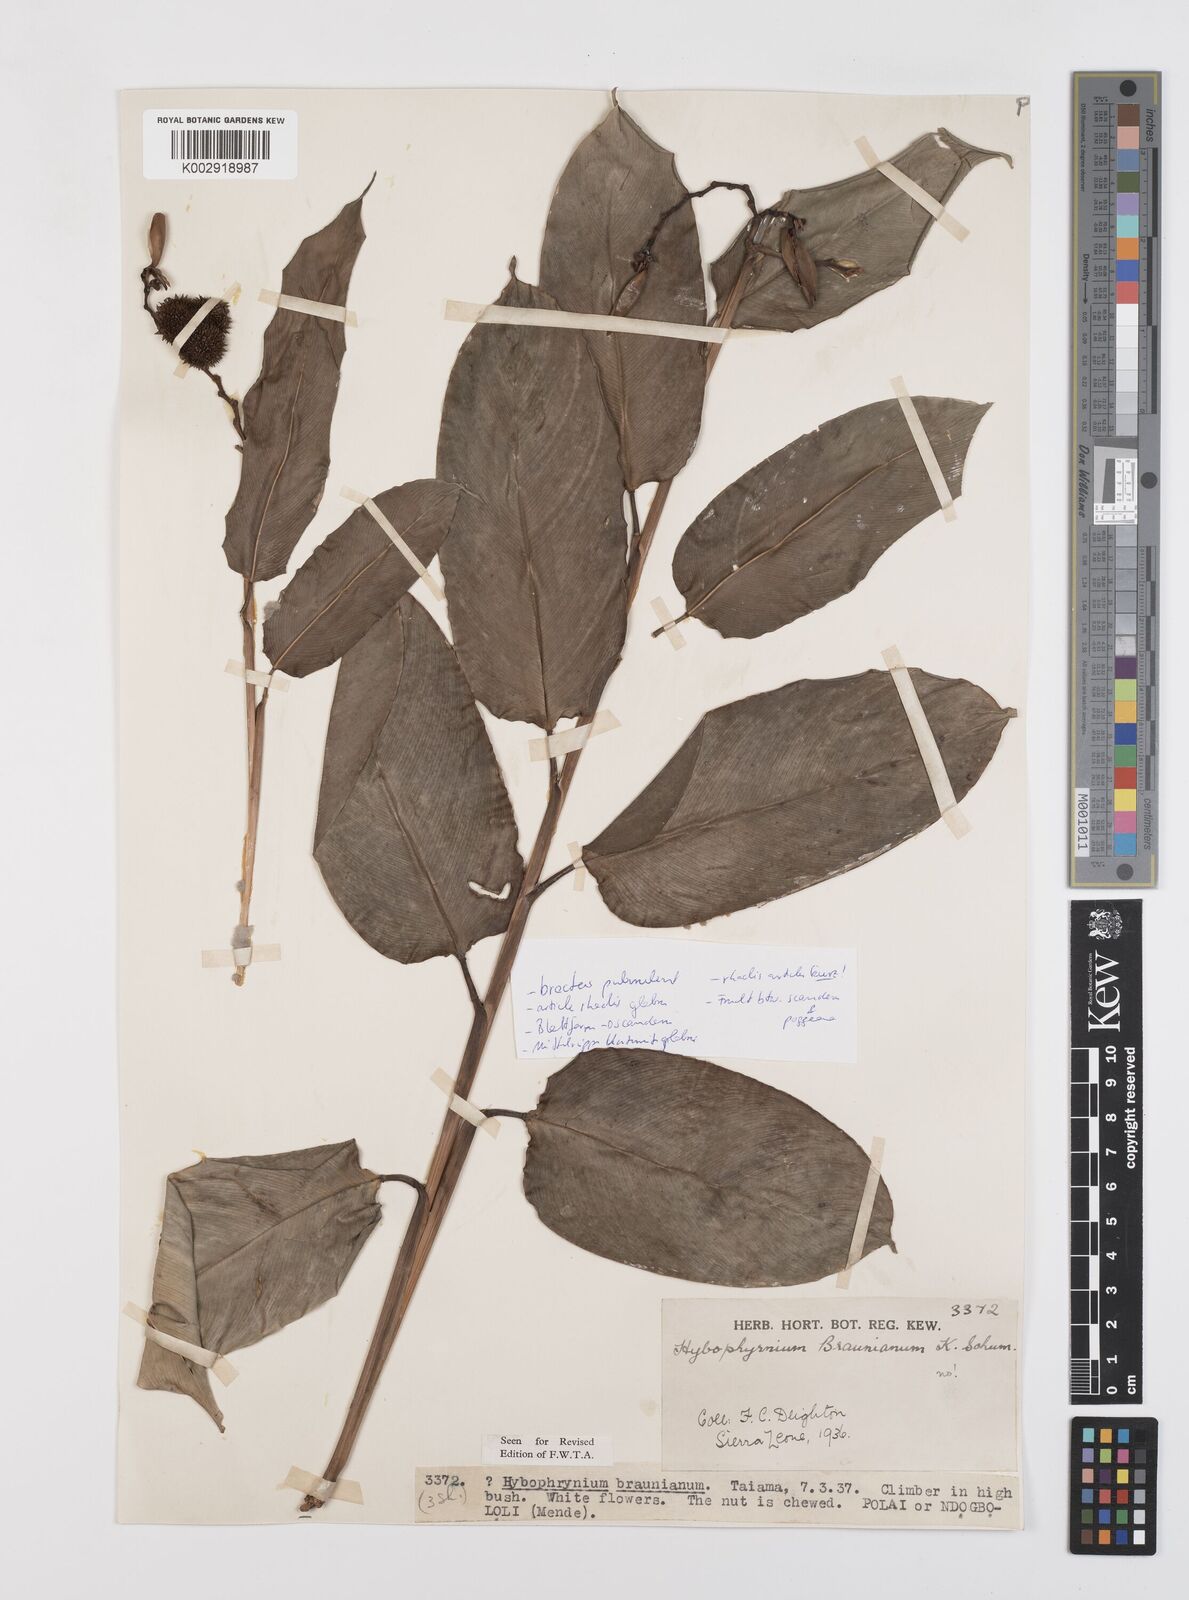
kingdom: Plantae
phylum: Tracheophyta
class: Liliopsida
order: Zingiberales
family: Marantaceae
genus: Trachyphrynium
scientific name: Trachyphrynium braunianum
